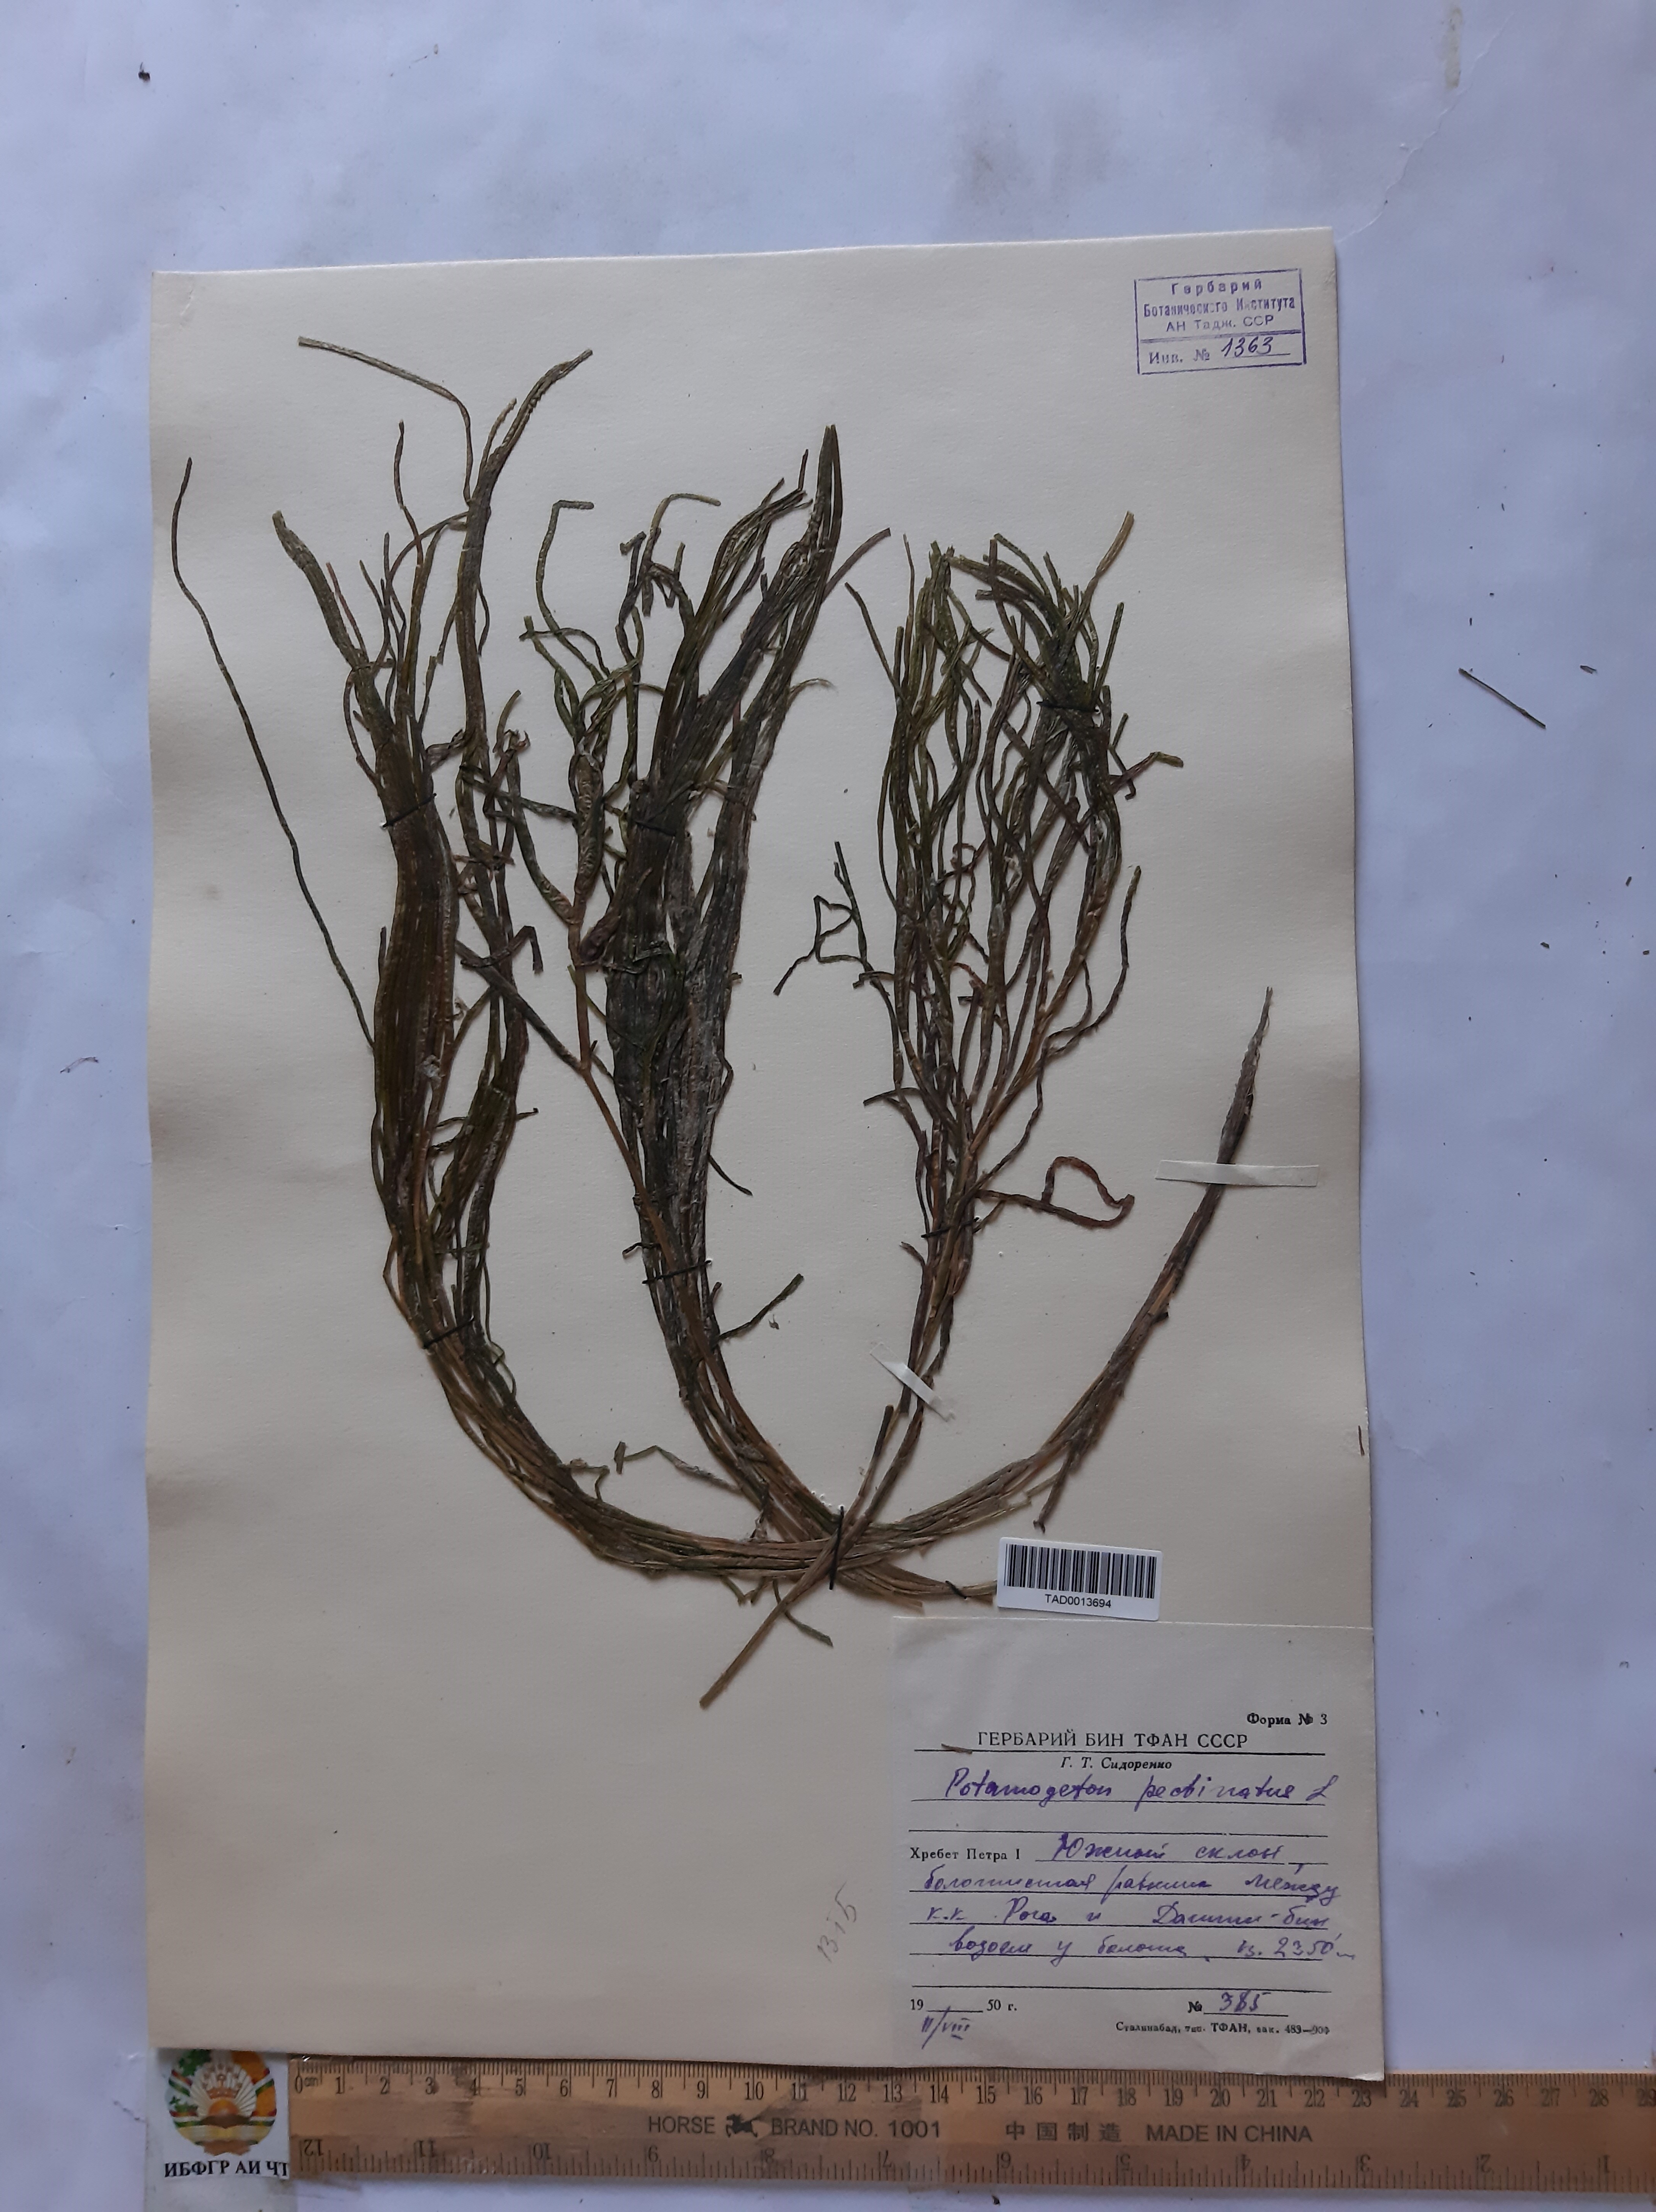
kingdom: Plantae
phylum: Tracheophyta
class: Liliopsida
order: Alismatales
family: Potamogetonaceae
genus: Potamogeton
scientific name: Potamogeton pusillus
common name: Lesser pondweed
